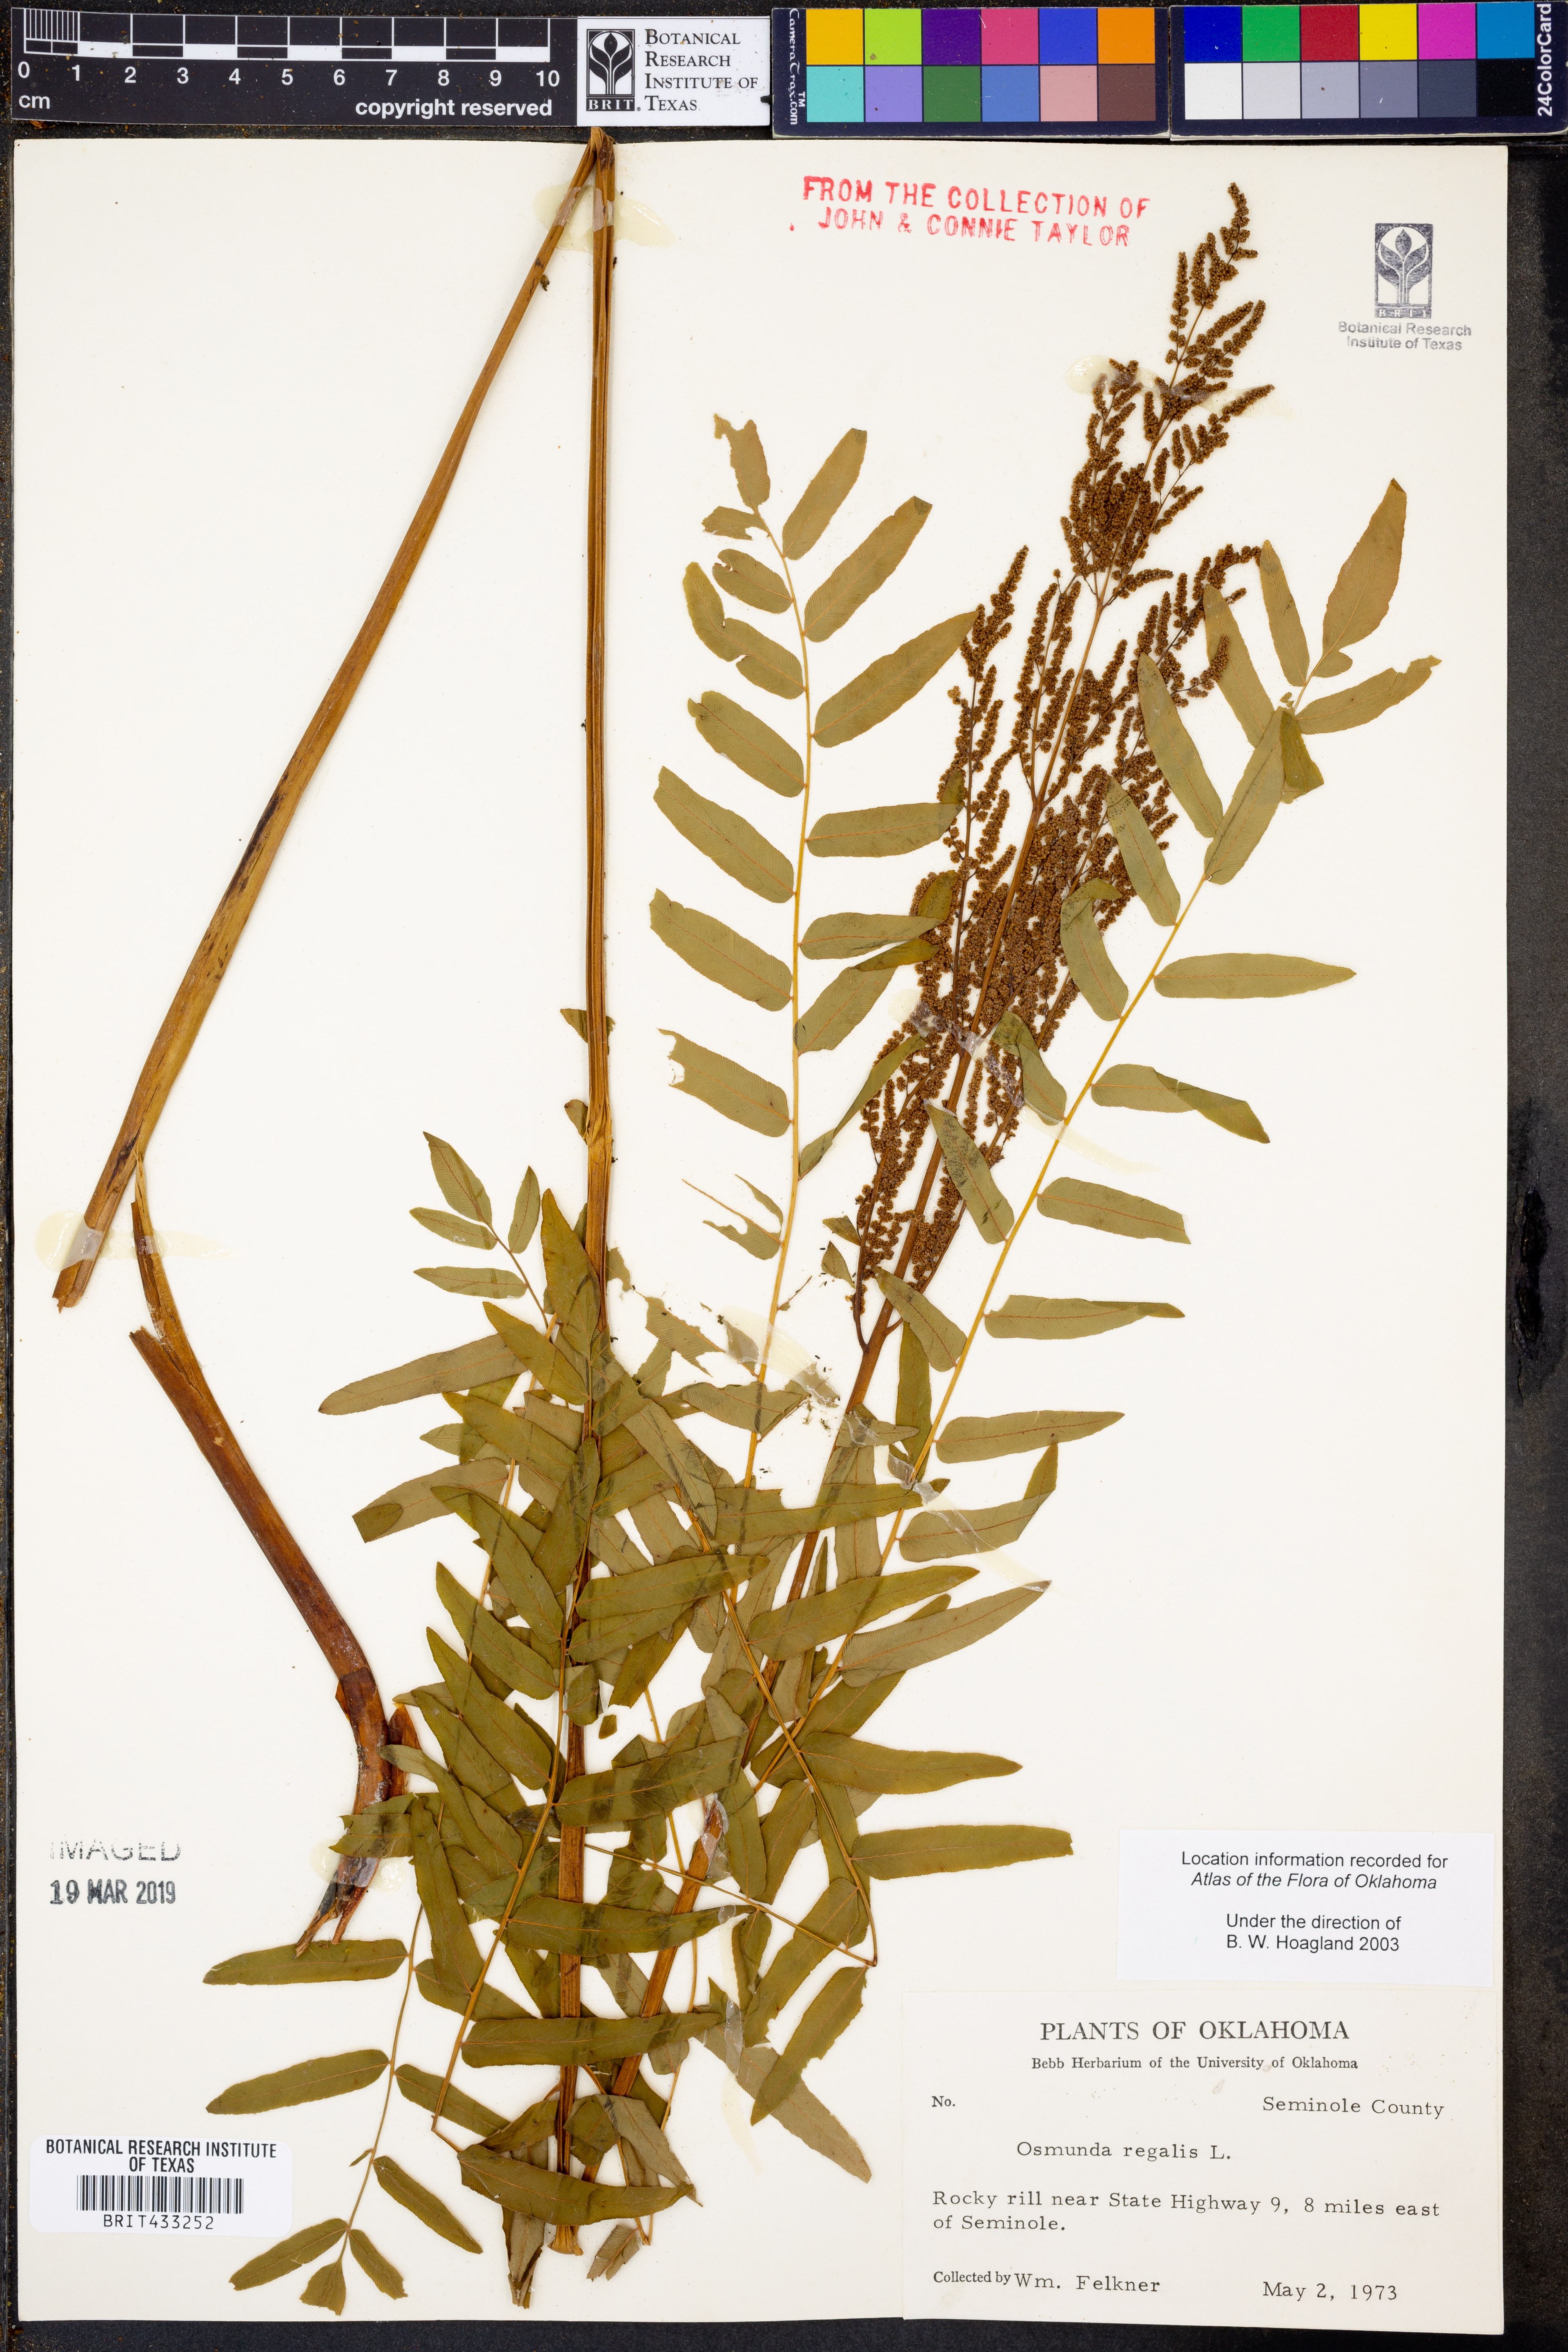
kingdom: Plantae
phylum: Tracheophyta
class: Polypodiopsida
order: Osmundales
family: Osmundaceae
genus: Osmunda
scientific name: Osmunda regalis
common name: Royal fern
